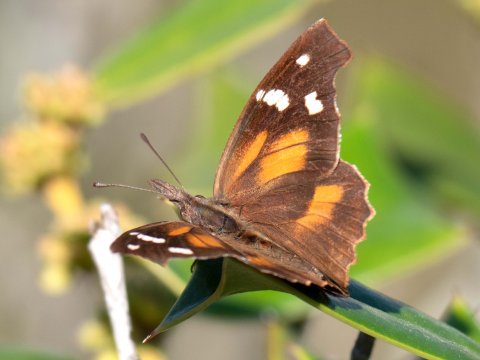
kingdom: Animalia
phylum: Arthropoda
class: Insecta
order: Lepidoptera
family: Nymphalidae
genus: Libytheana
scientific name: Libytheana carinenta
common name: American Snout
